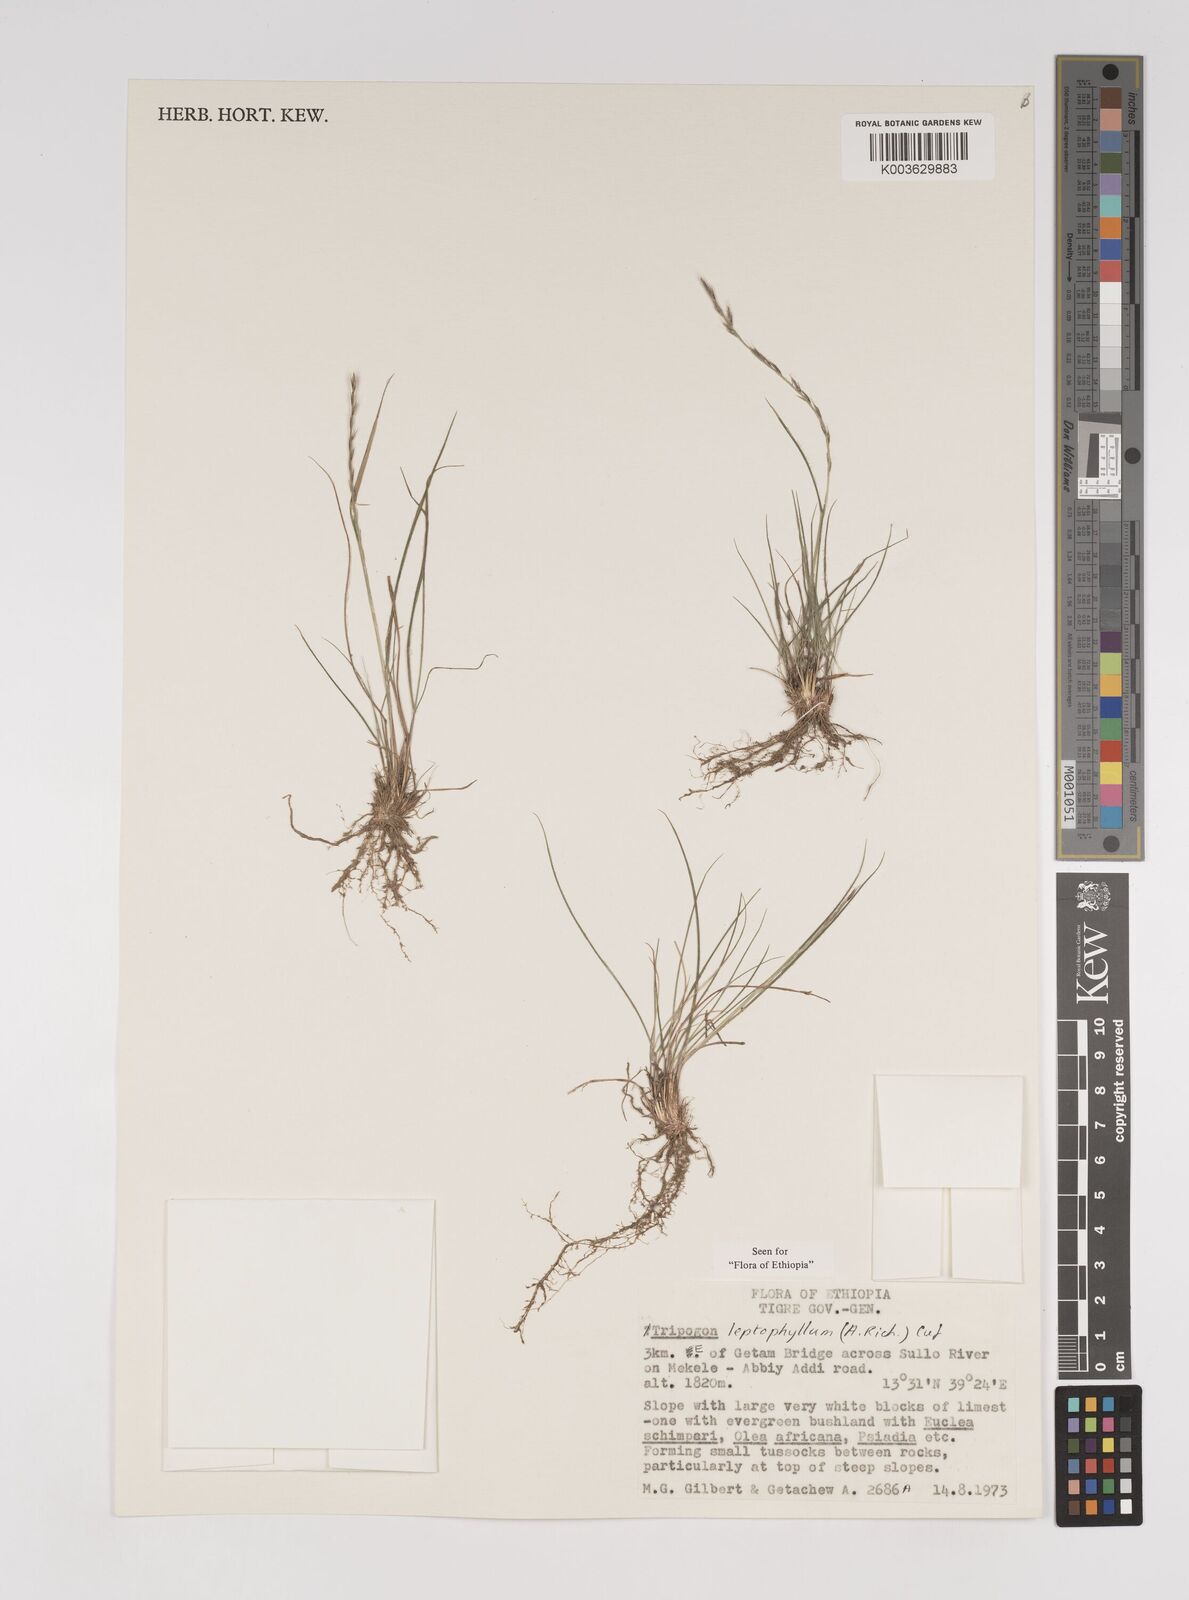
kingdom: Plantae
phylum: Tracheophyta
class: Liliopsida
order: Poales
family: Poaceae
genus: Tripogon
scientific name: Tripogon leptophyllus
